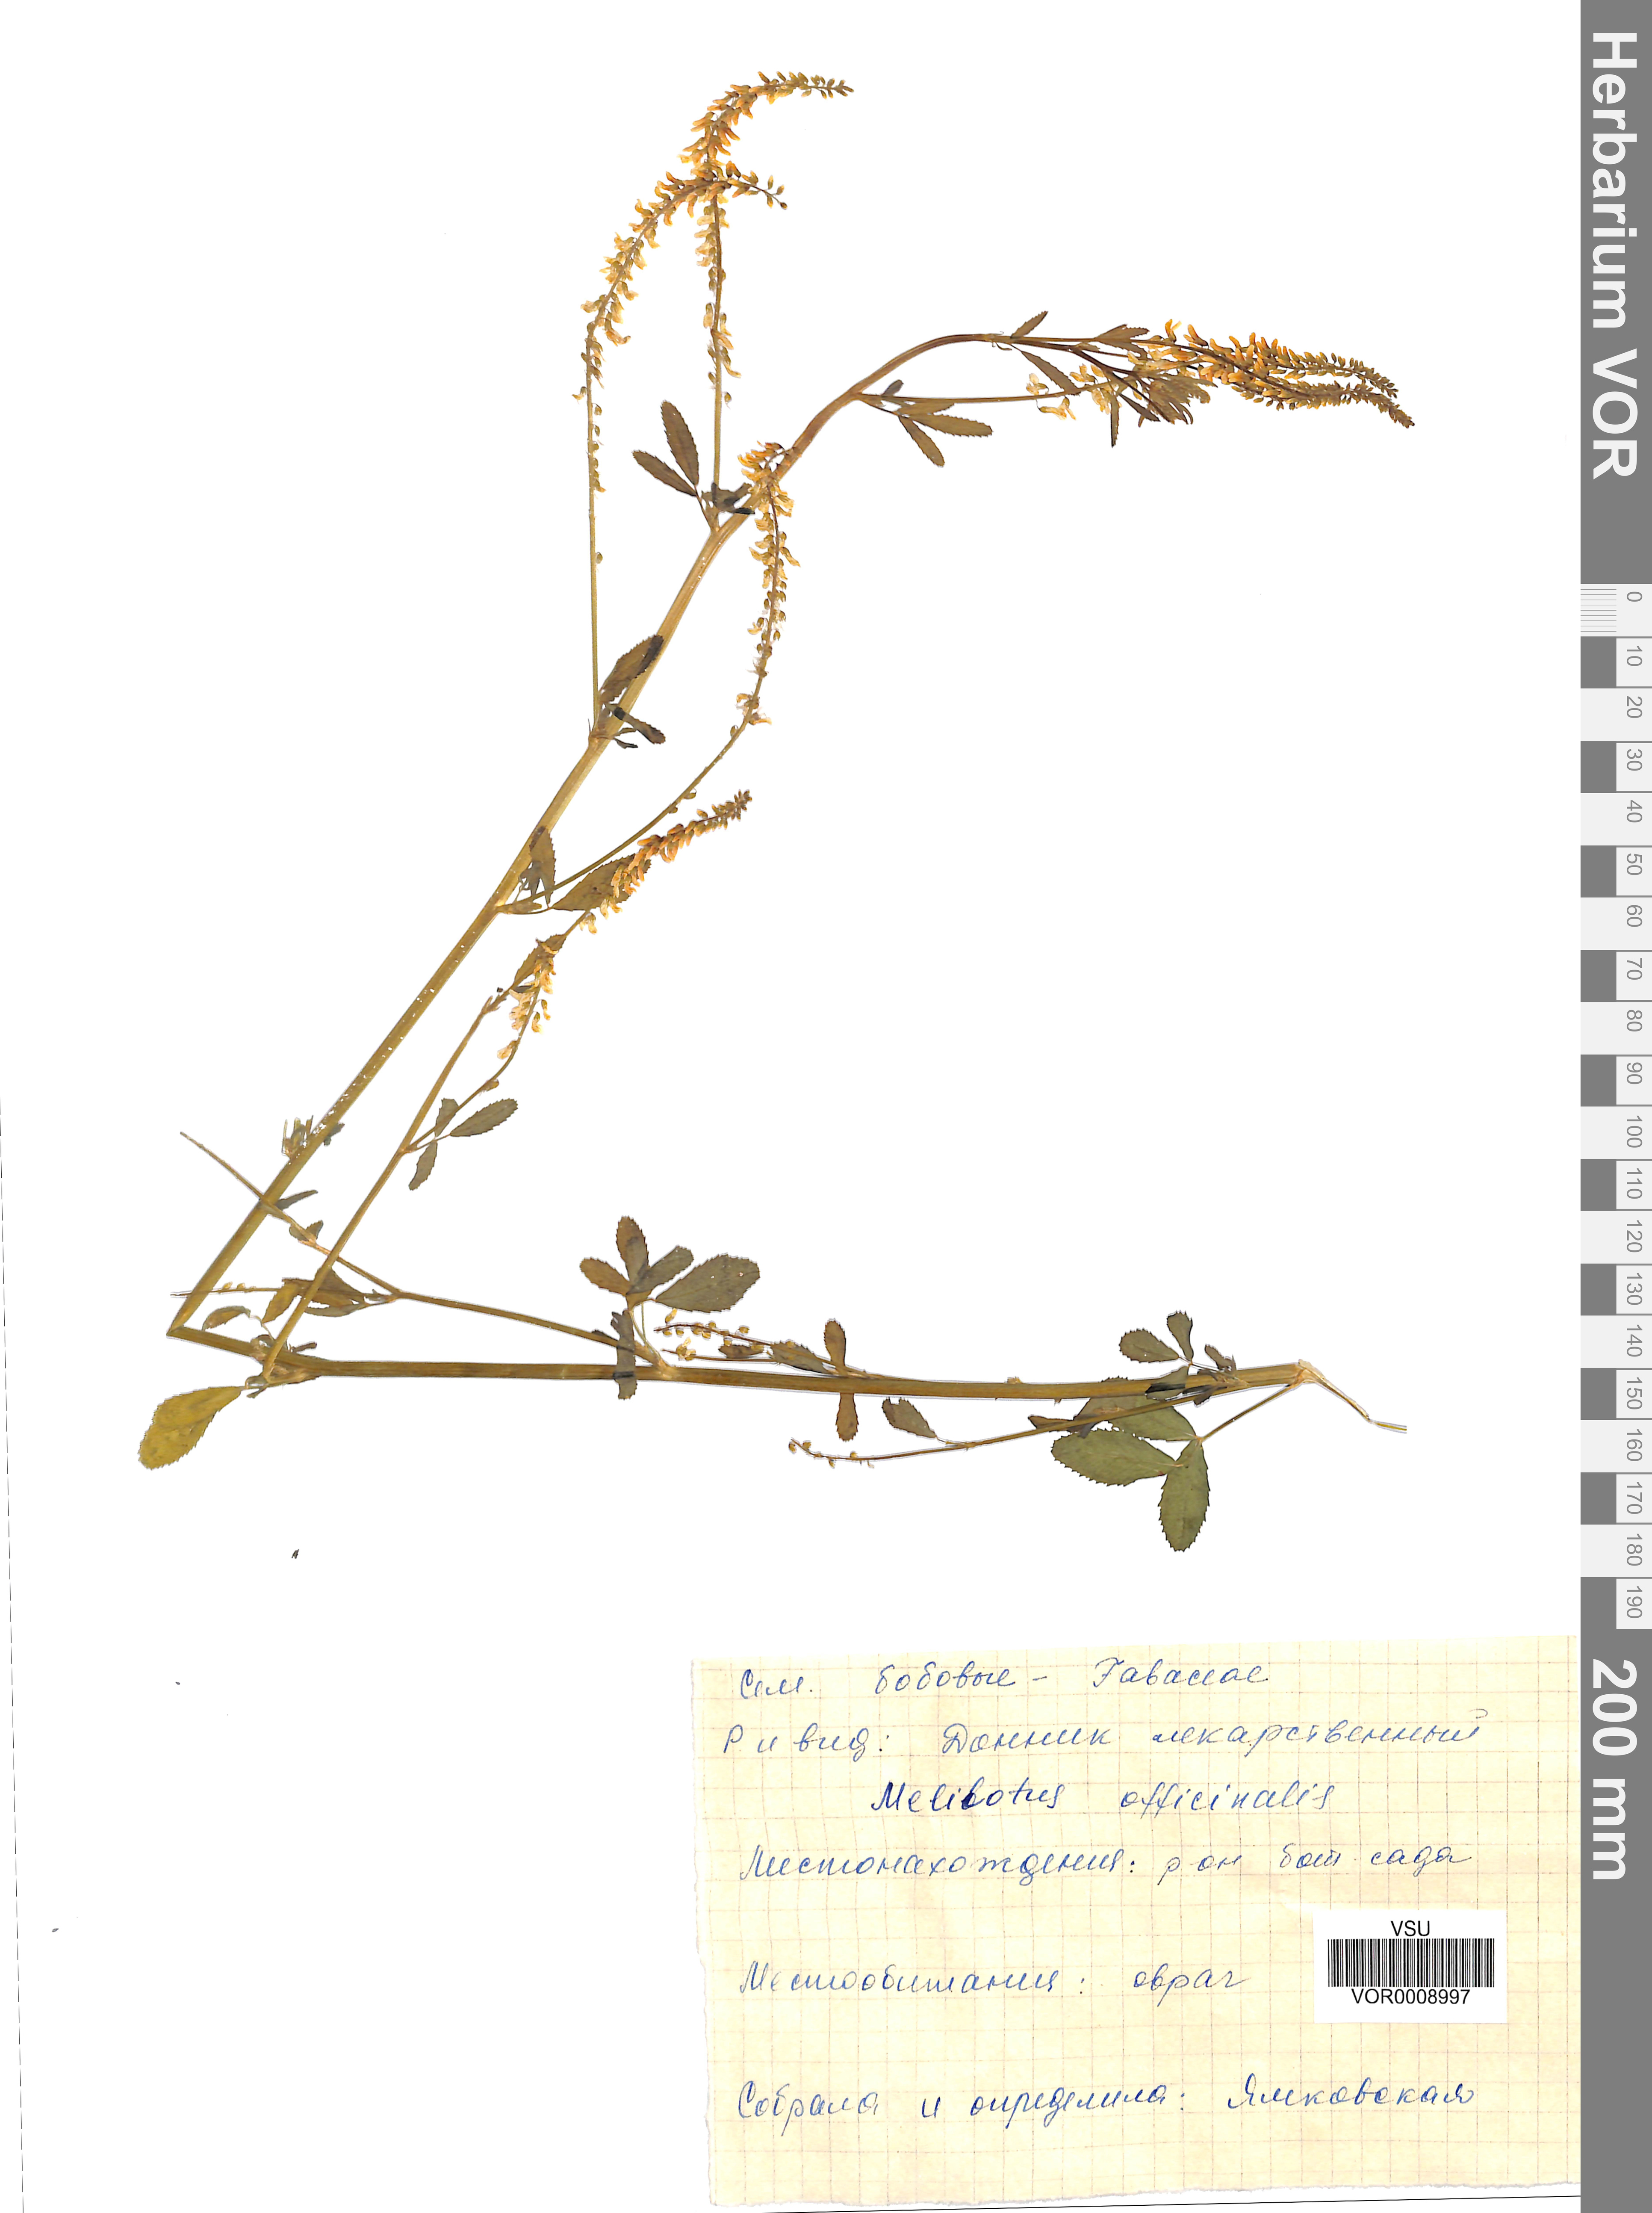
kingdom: Plantae
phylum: Tracheophyta
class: Magnoliopsida
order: Fabales
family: Fabaceae
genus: Melilotus
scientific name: Melilotus officinalis
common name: Sweetclover
